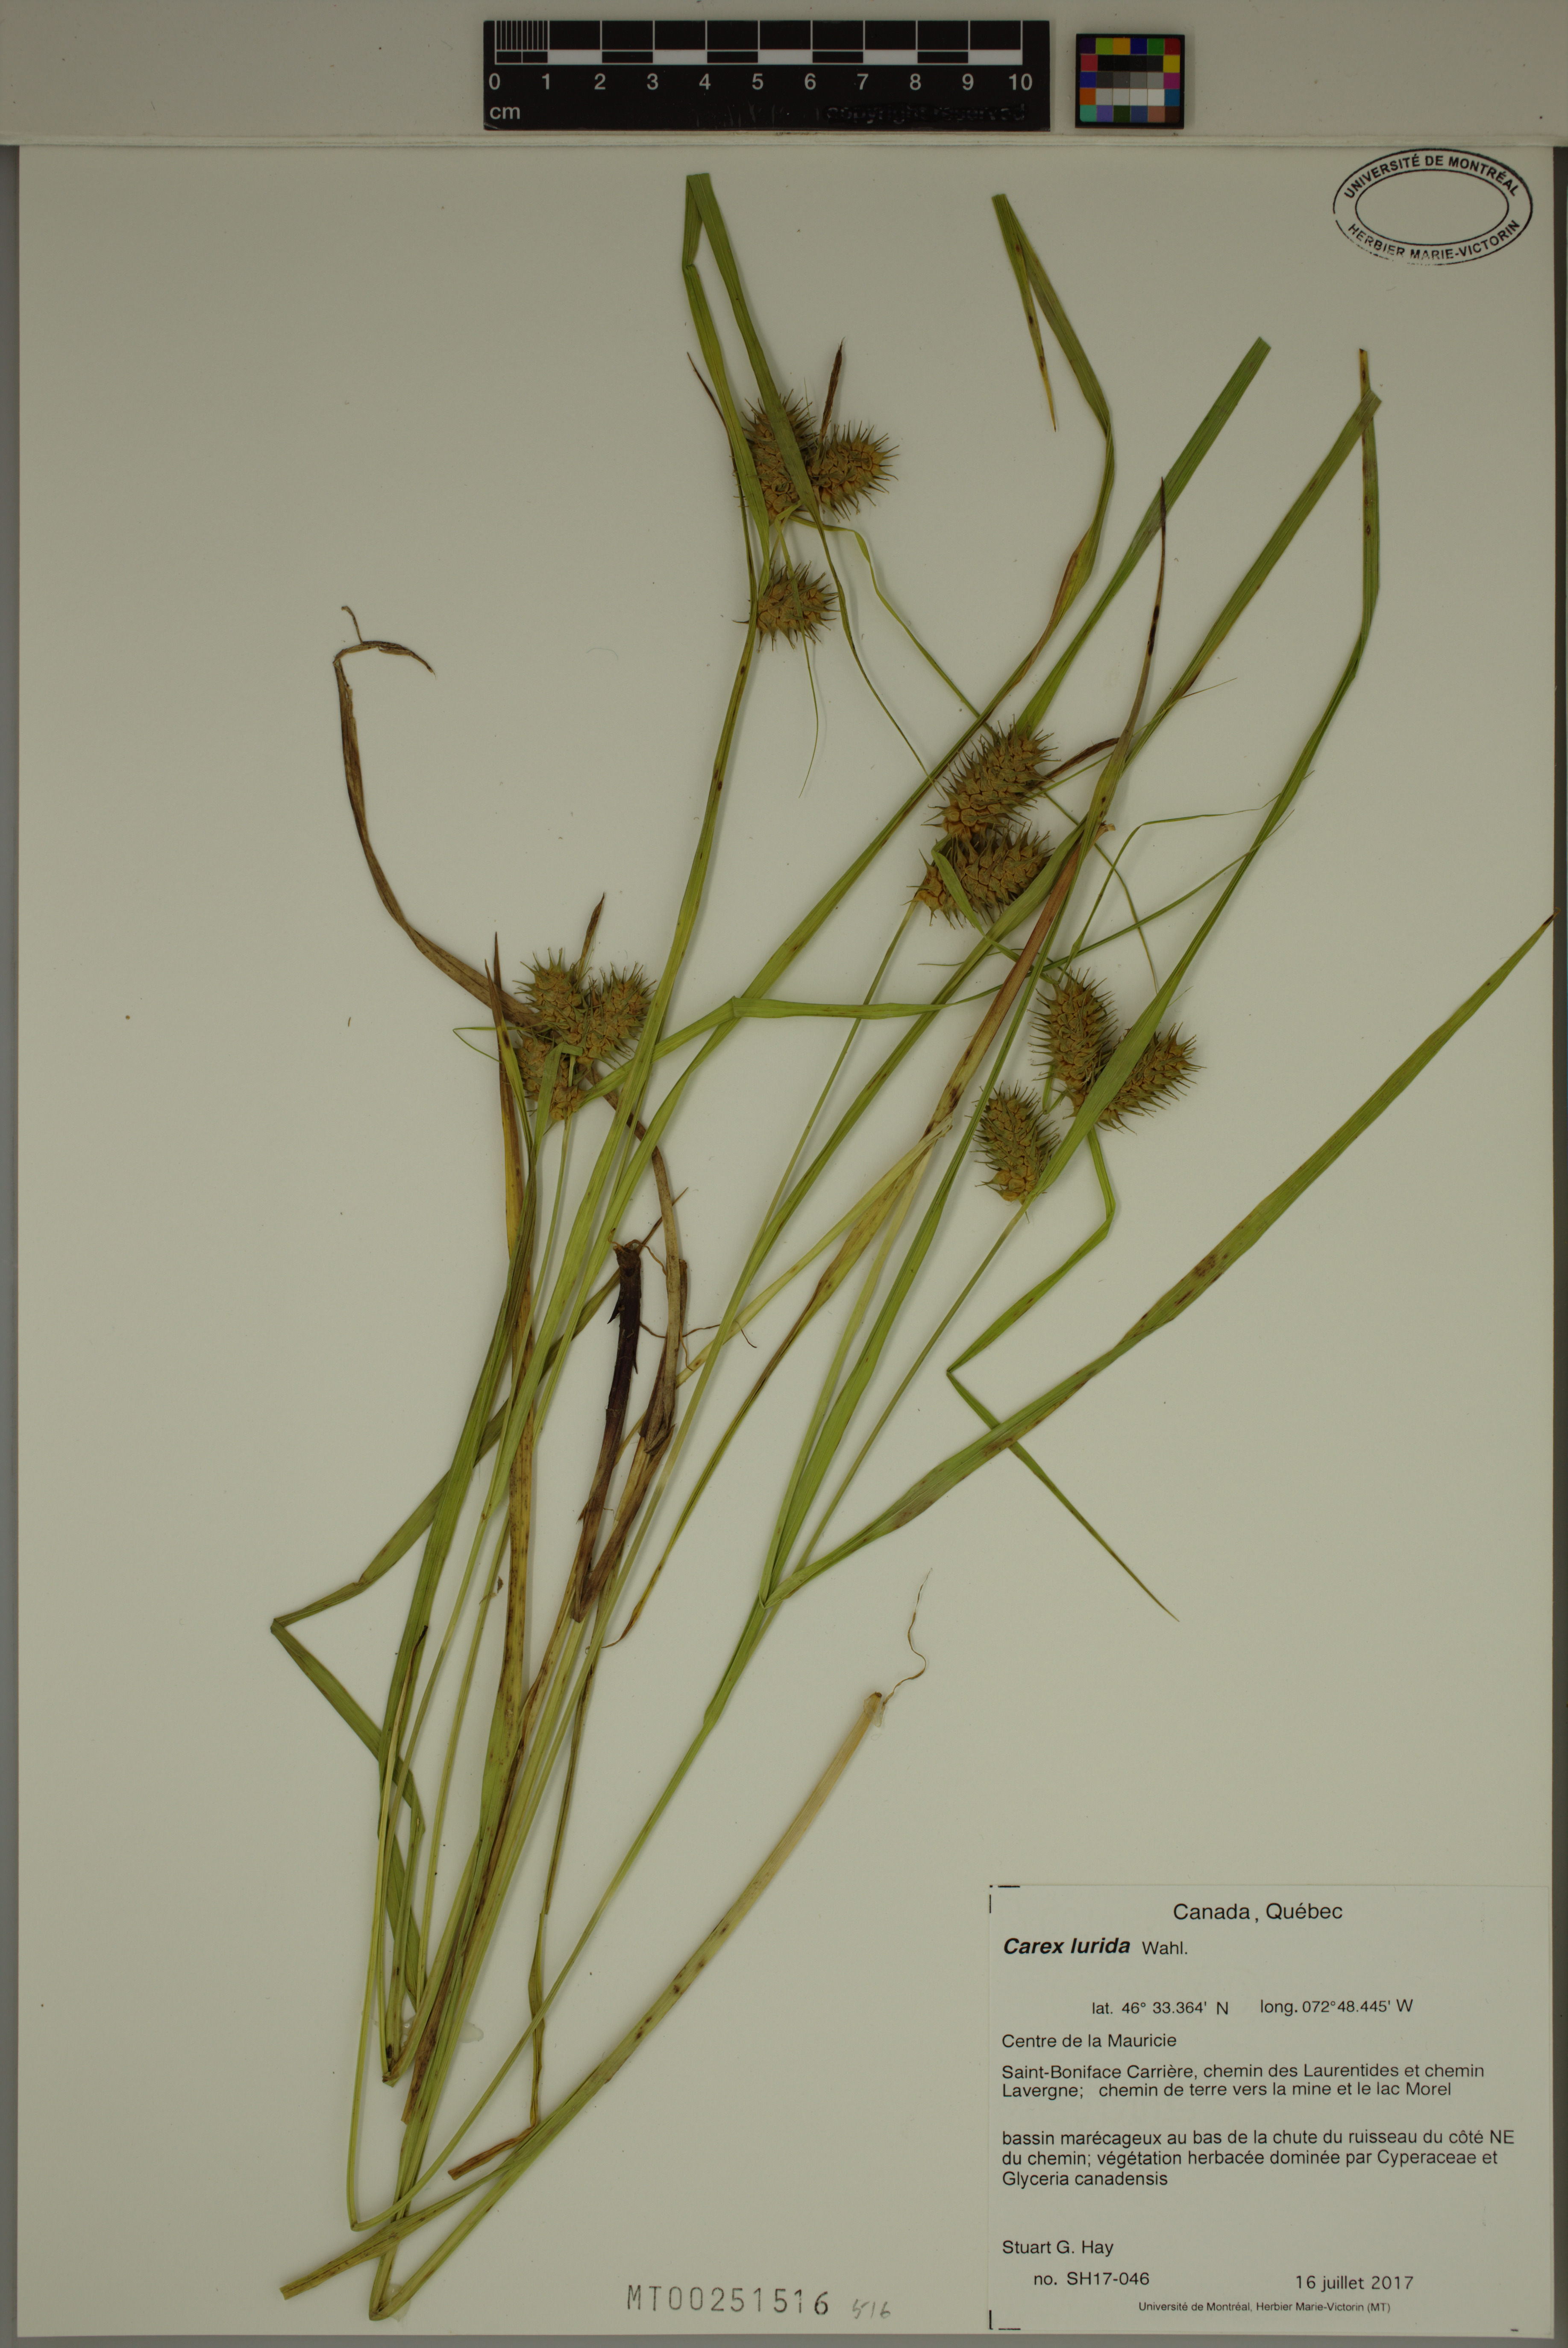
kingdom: Plantae
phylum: Tracheophyta
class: Liliopsida
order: Poales
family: Cyperaceae
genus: Carex
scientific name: Carex lurida
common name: Sallow sedge
